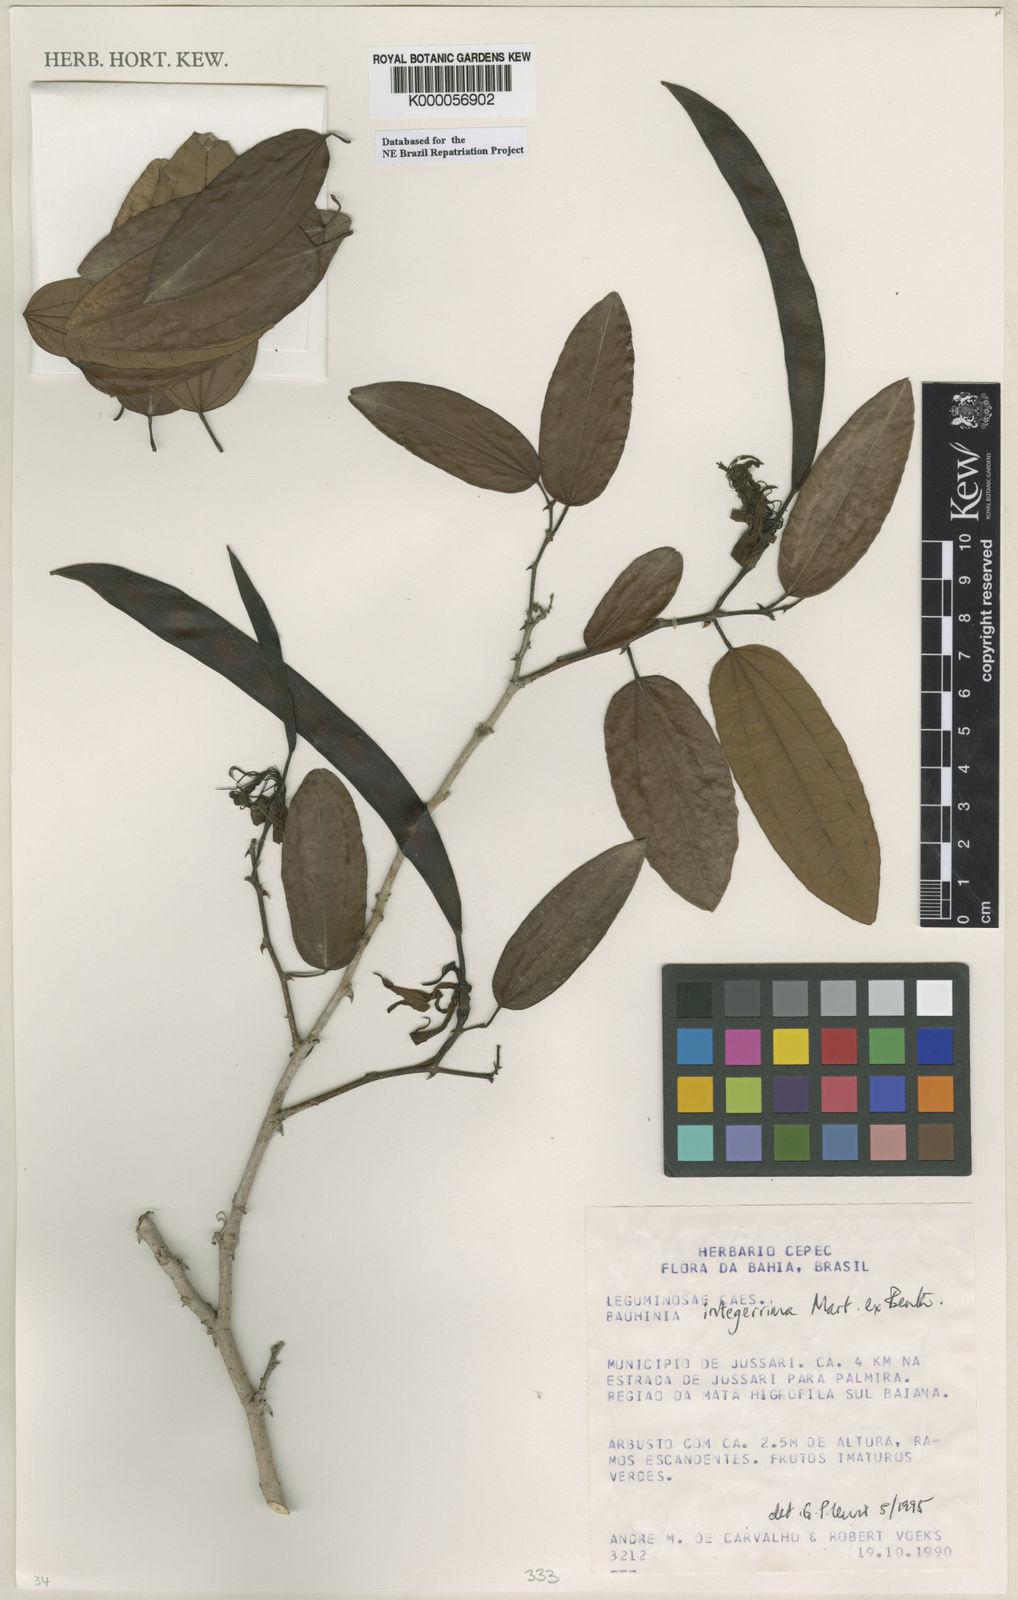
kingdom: Plantae
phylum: Tracheophyta
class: Magnoliopsida
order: Fabales
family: Fabaceae
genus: Bauhinia
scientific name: Bauhinia integerrima
